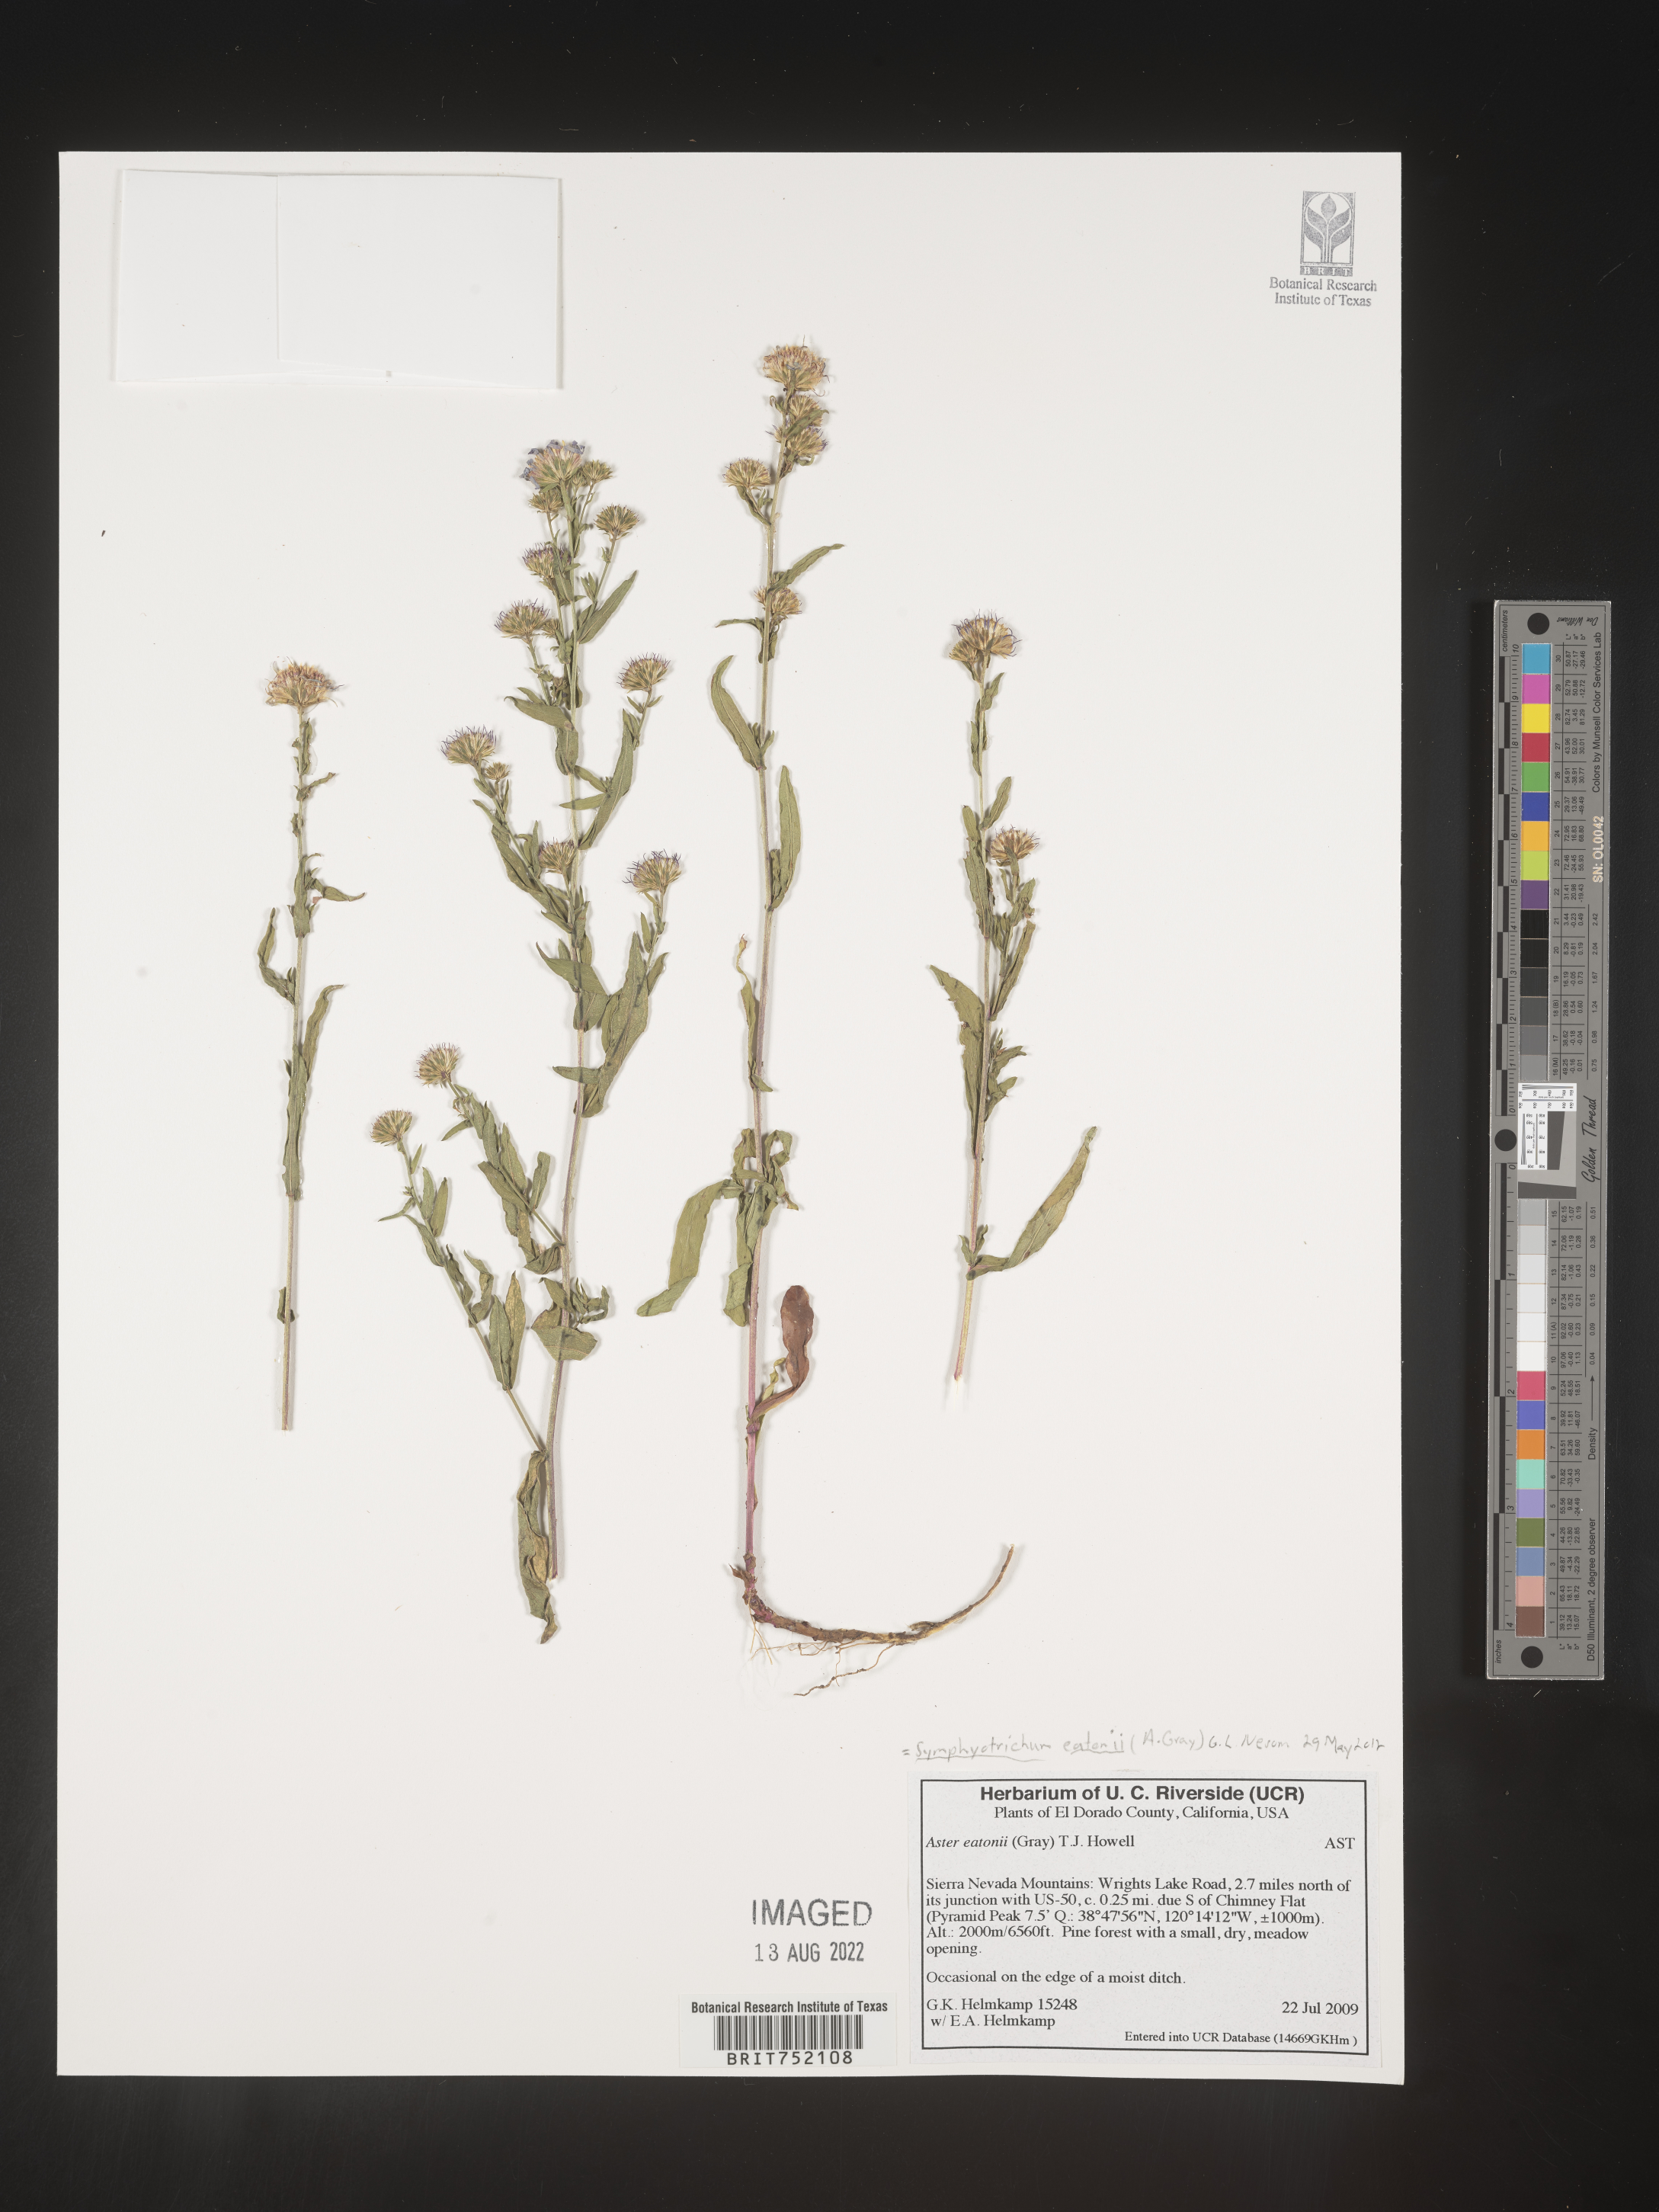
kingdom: Plantae
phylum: Tracheophyta
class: Magnoliopsida
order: Asterales
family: Asteraceae
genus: Symphyotrichum
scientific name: Symphyotrichum bracteolatum
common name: Eaton's aster
